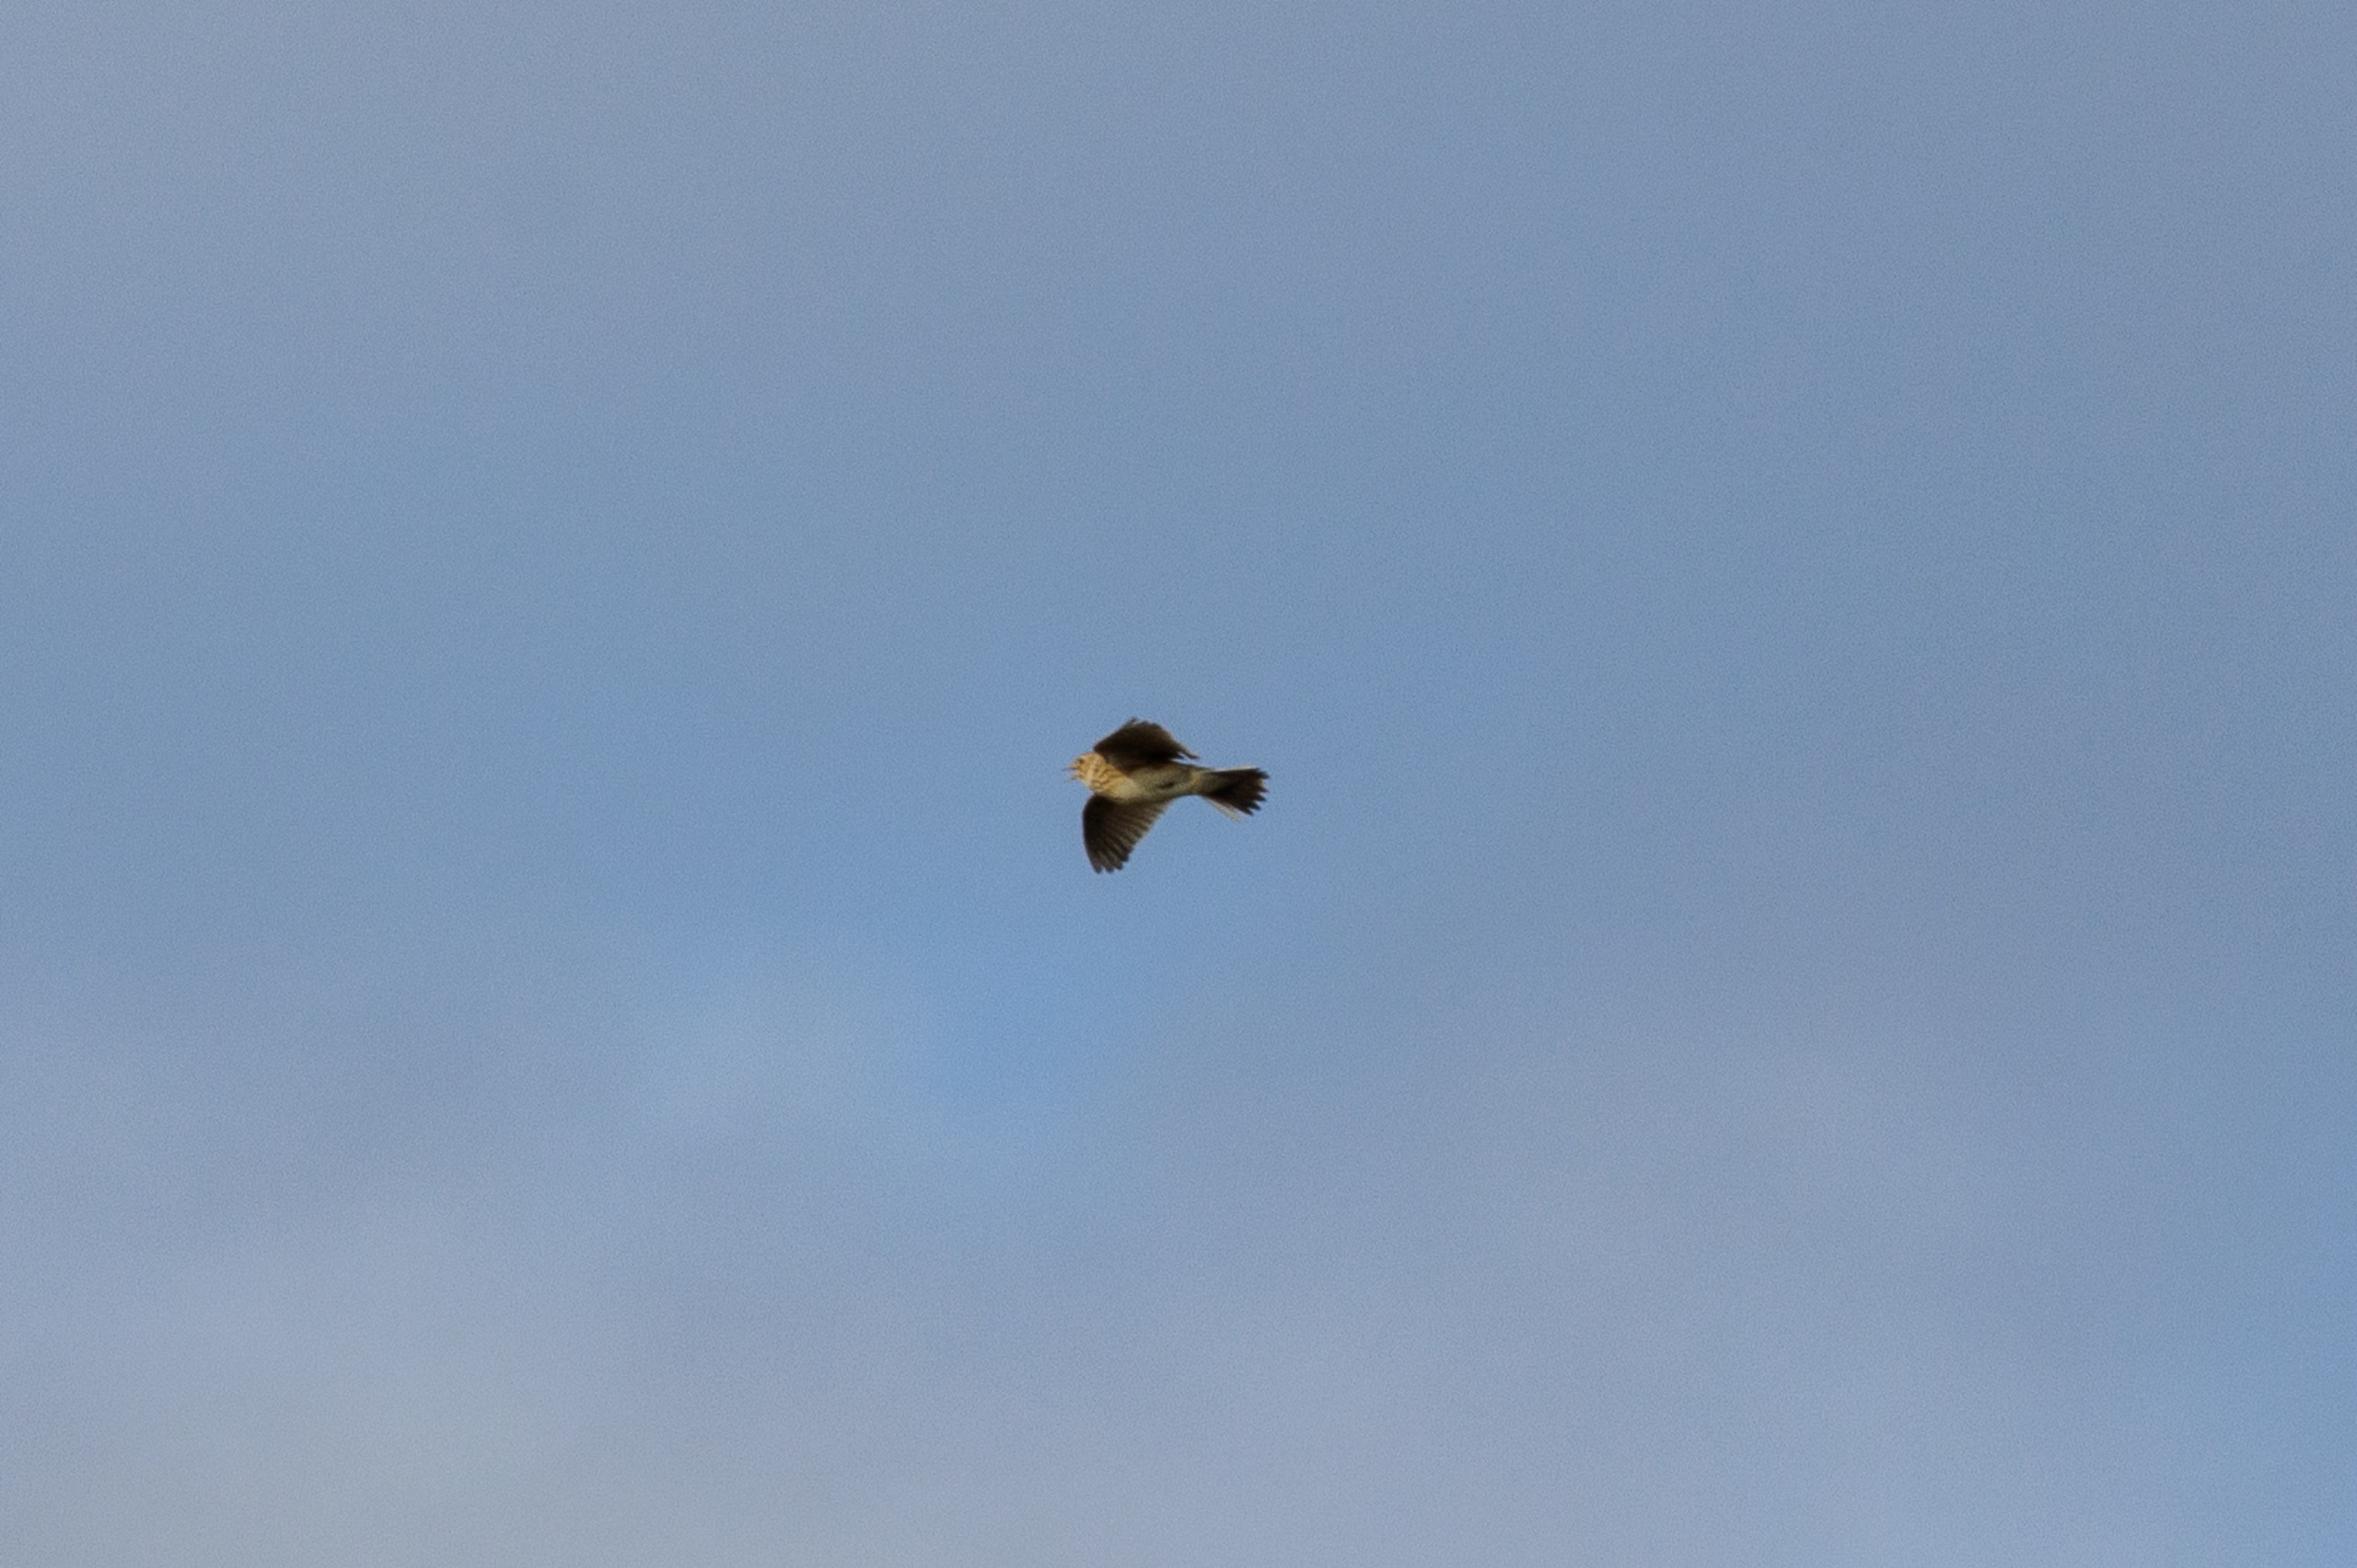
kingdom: Animalia
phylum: Chordata
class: Aves
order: Passeriformes
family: Alaudidae
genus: Alauda
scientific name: Alauda arvensis
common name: Sanglærke
